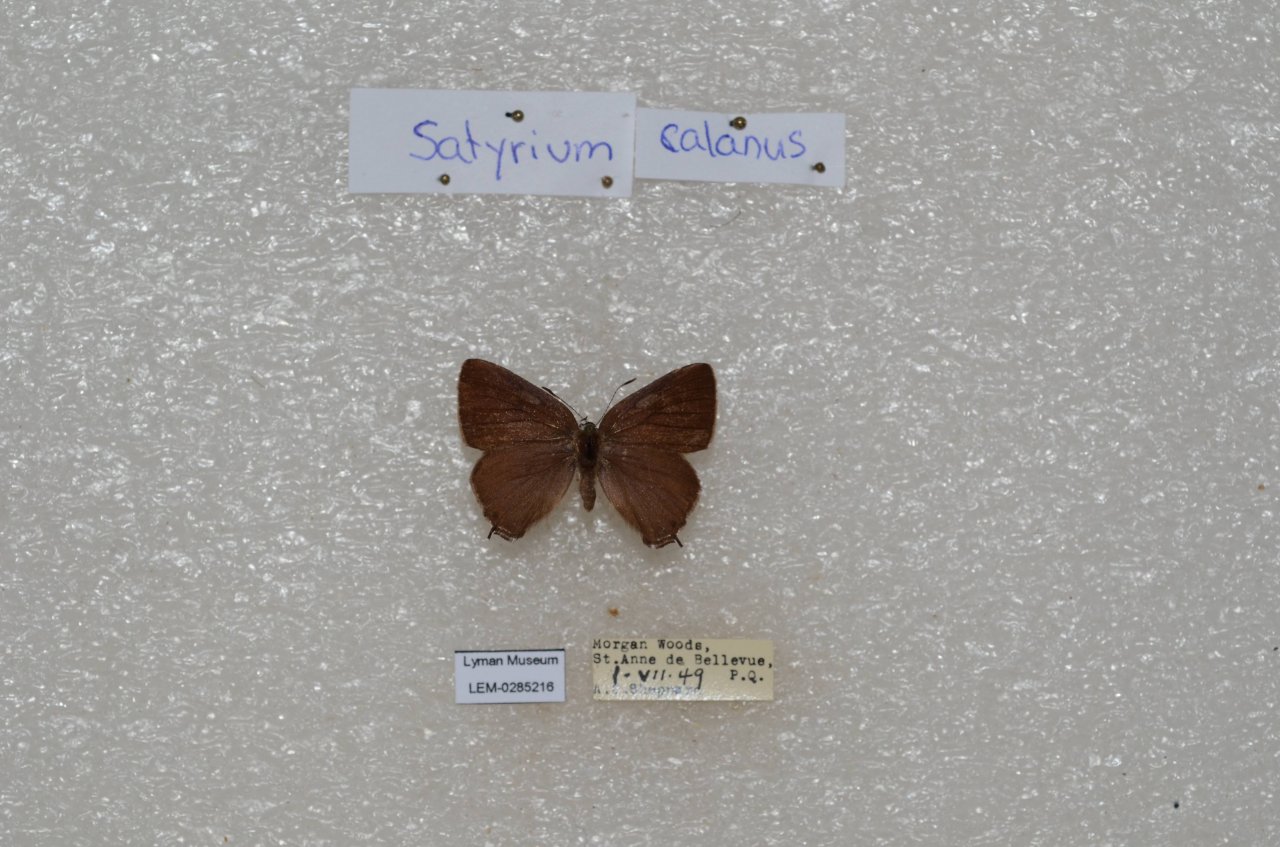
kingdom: Animalia
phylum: Arthropoda
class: Insecta
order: Lepidoptera
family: Lycaenidae
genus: Satyrium
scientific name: Satyrium calanus
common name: Banded Hairstreak
